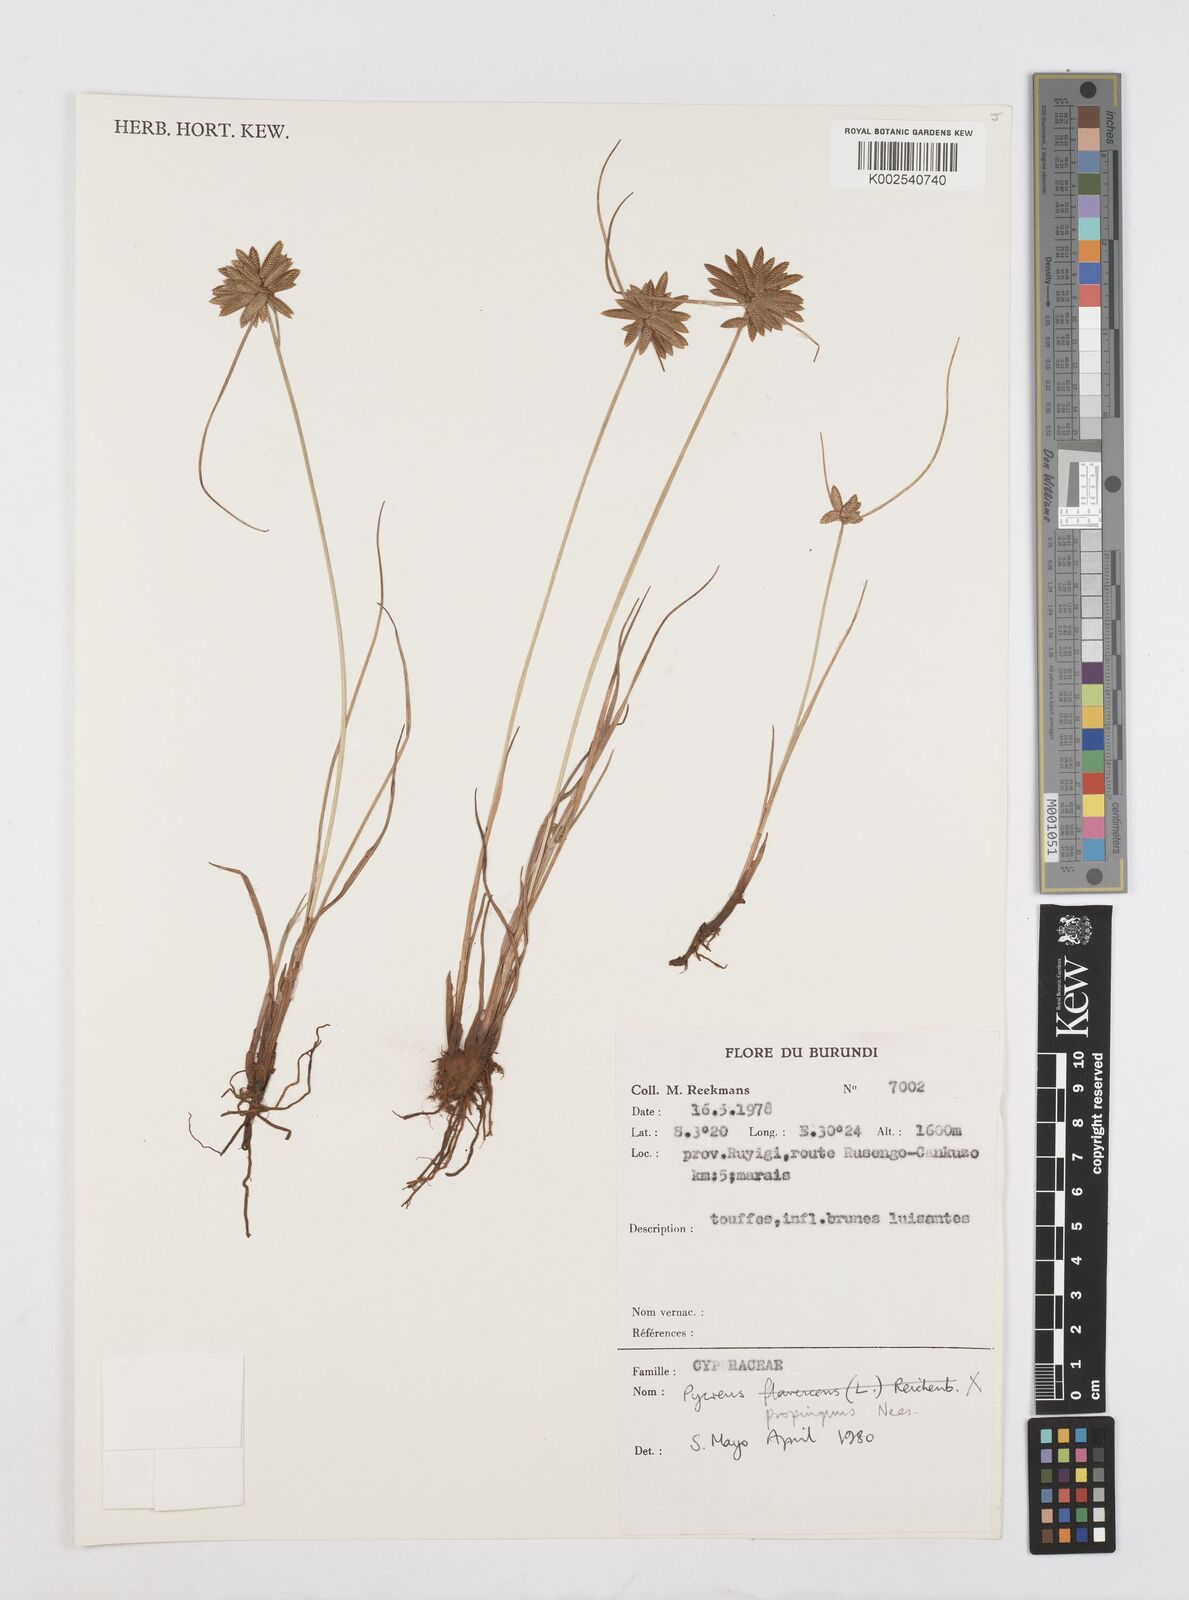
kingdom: Plantae
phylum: Tracheophyta
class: Liliopsida
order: Poales
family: Cyperaceae
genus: Cyperus
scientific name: Cyperus
